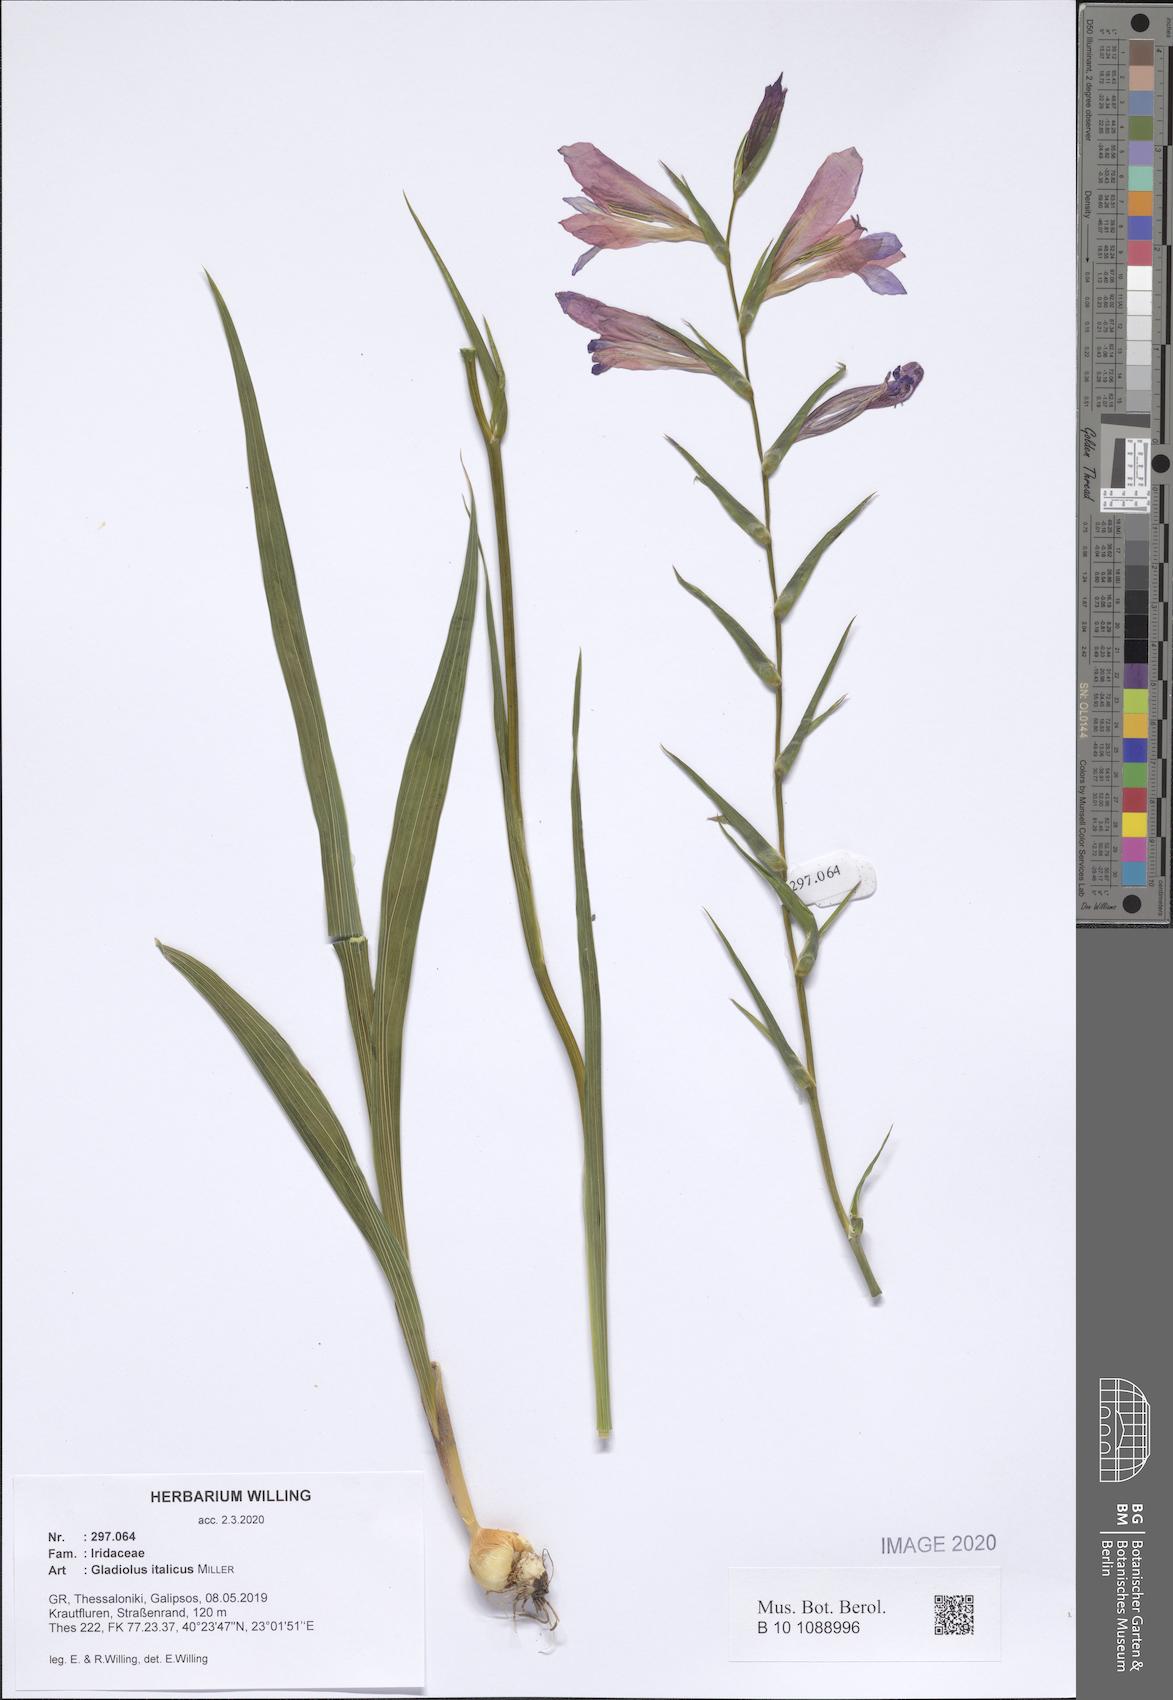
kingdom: Plantae
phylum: Tracheophyta
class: Liliopsida
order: Asparagales
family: Iridaceae
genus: Gladiolus
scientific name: Gladiolus italicus
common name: Field gladiolus
